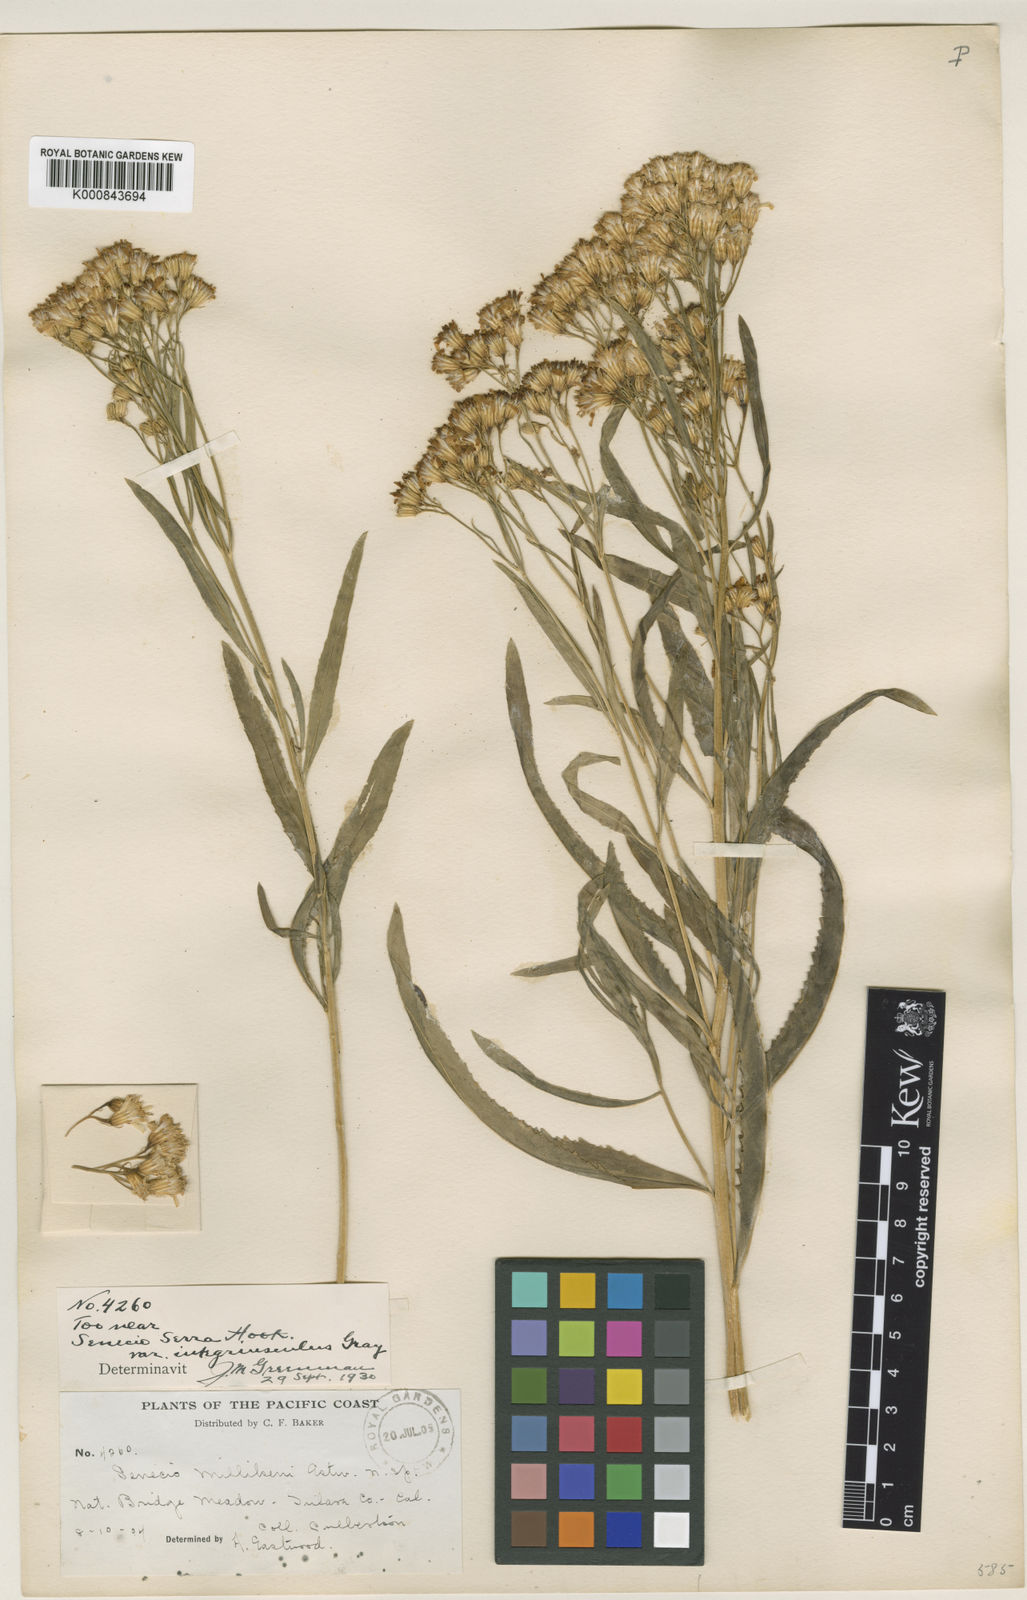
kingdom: Plantae
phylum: Tracheophyta
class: Magnoliopsida
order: Asterales
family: Asteraceae
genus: Senecio
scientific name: Senecio serra
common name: Tall ragwort
